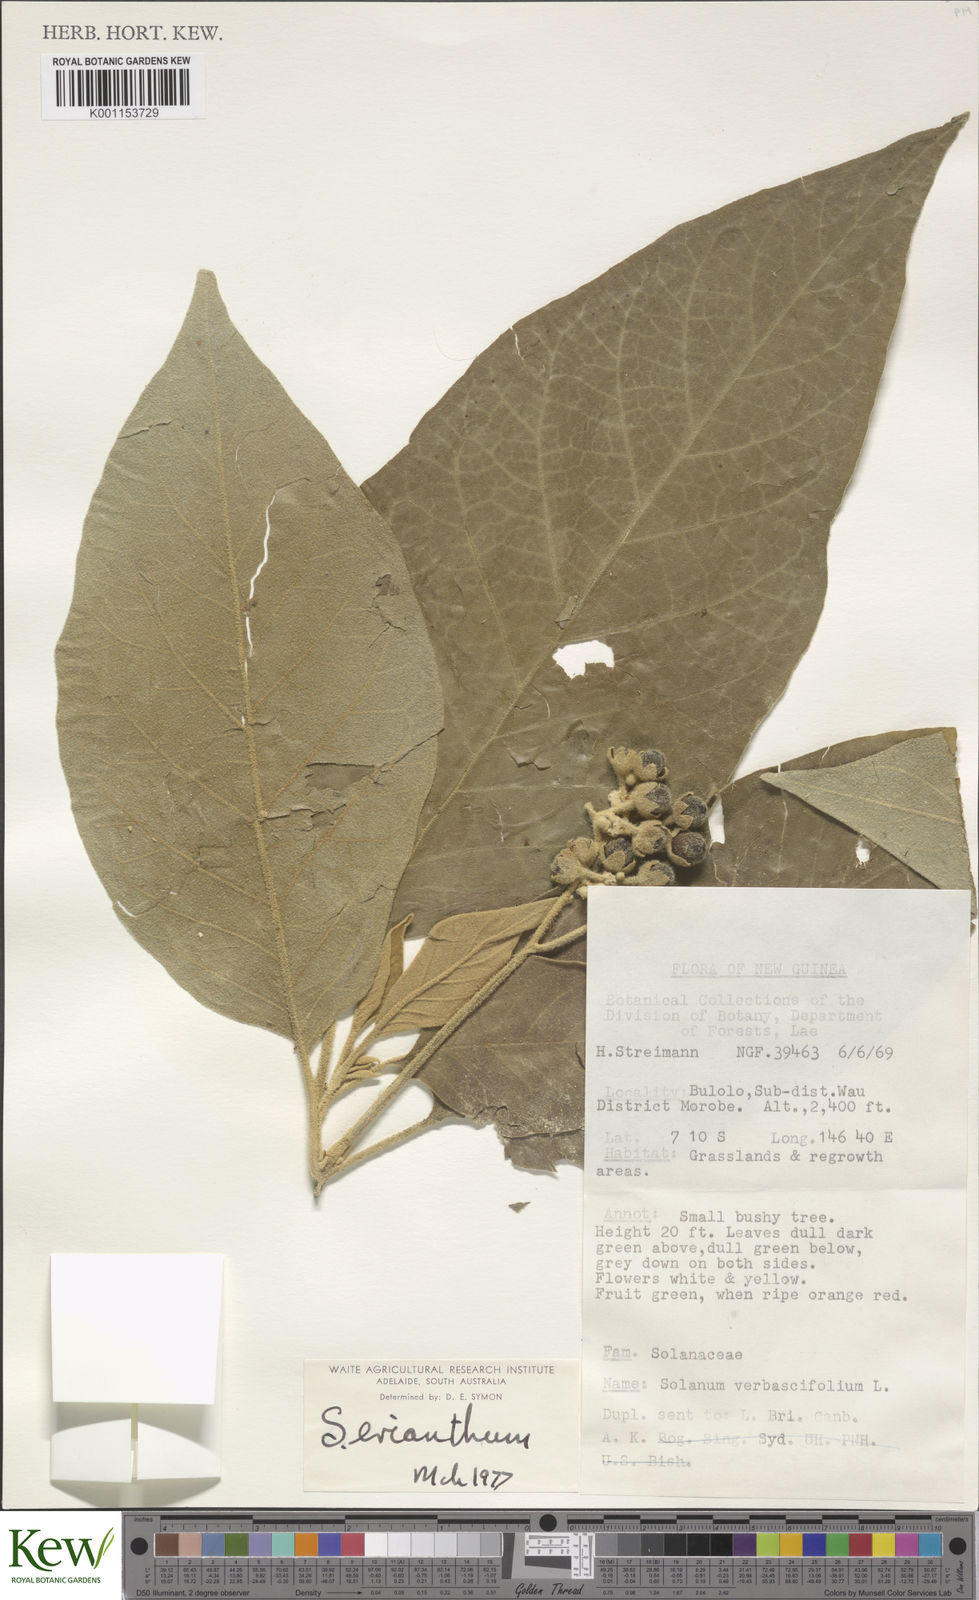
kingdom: Plantae
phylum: Tracheophyta
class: Magnoliopsida
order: Solanales
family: Solanaceae
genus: Solanum
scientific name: Solanum erianthum
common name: Tobacco-tree
